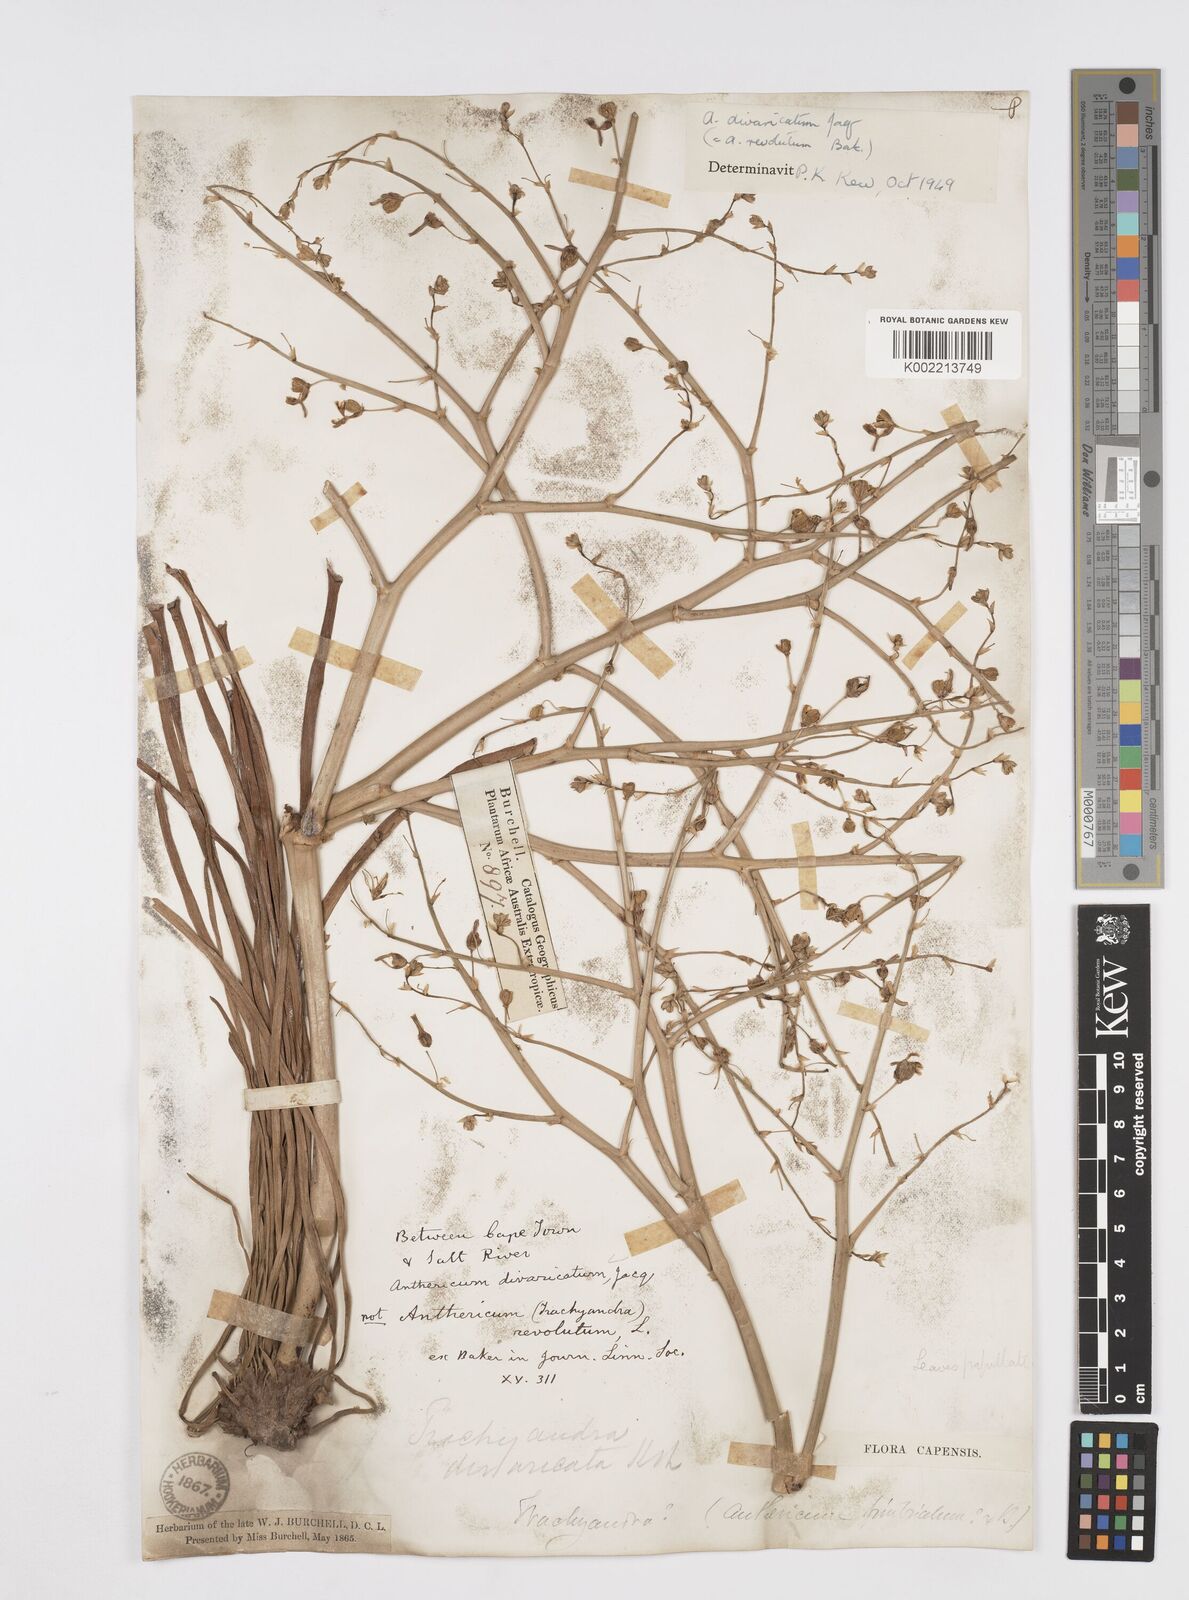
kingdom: Plantae
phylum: Tracheophyta
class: Liliopsida
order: Asparagales
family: Asphodelaceae
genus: Trachyandra
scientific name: Trachyandra divaricata
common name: Dune onionweed
